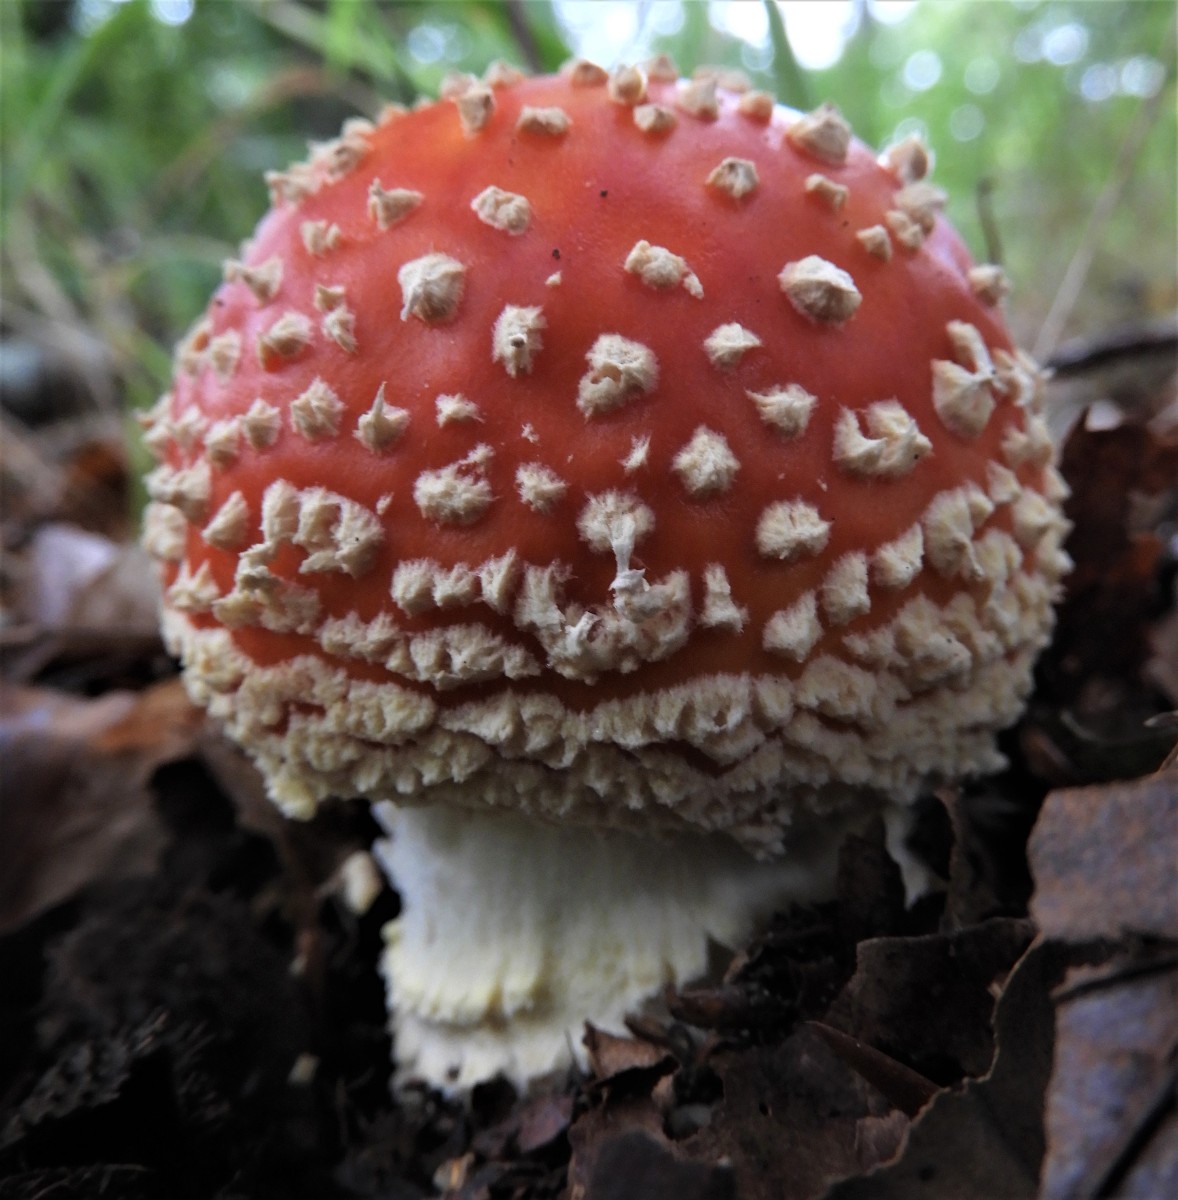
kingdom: Fungi
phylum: Basidiomycota
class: Agaricomycetes
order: Agaricales
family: Amanitaceae
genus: Amanita
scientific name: Amanita muscaria
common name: rød fluesvamp
